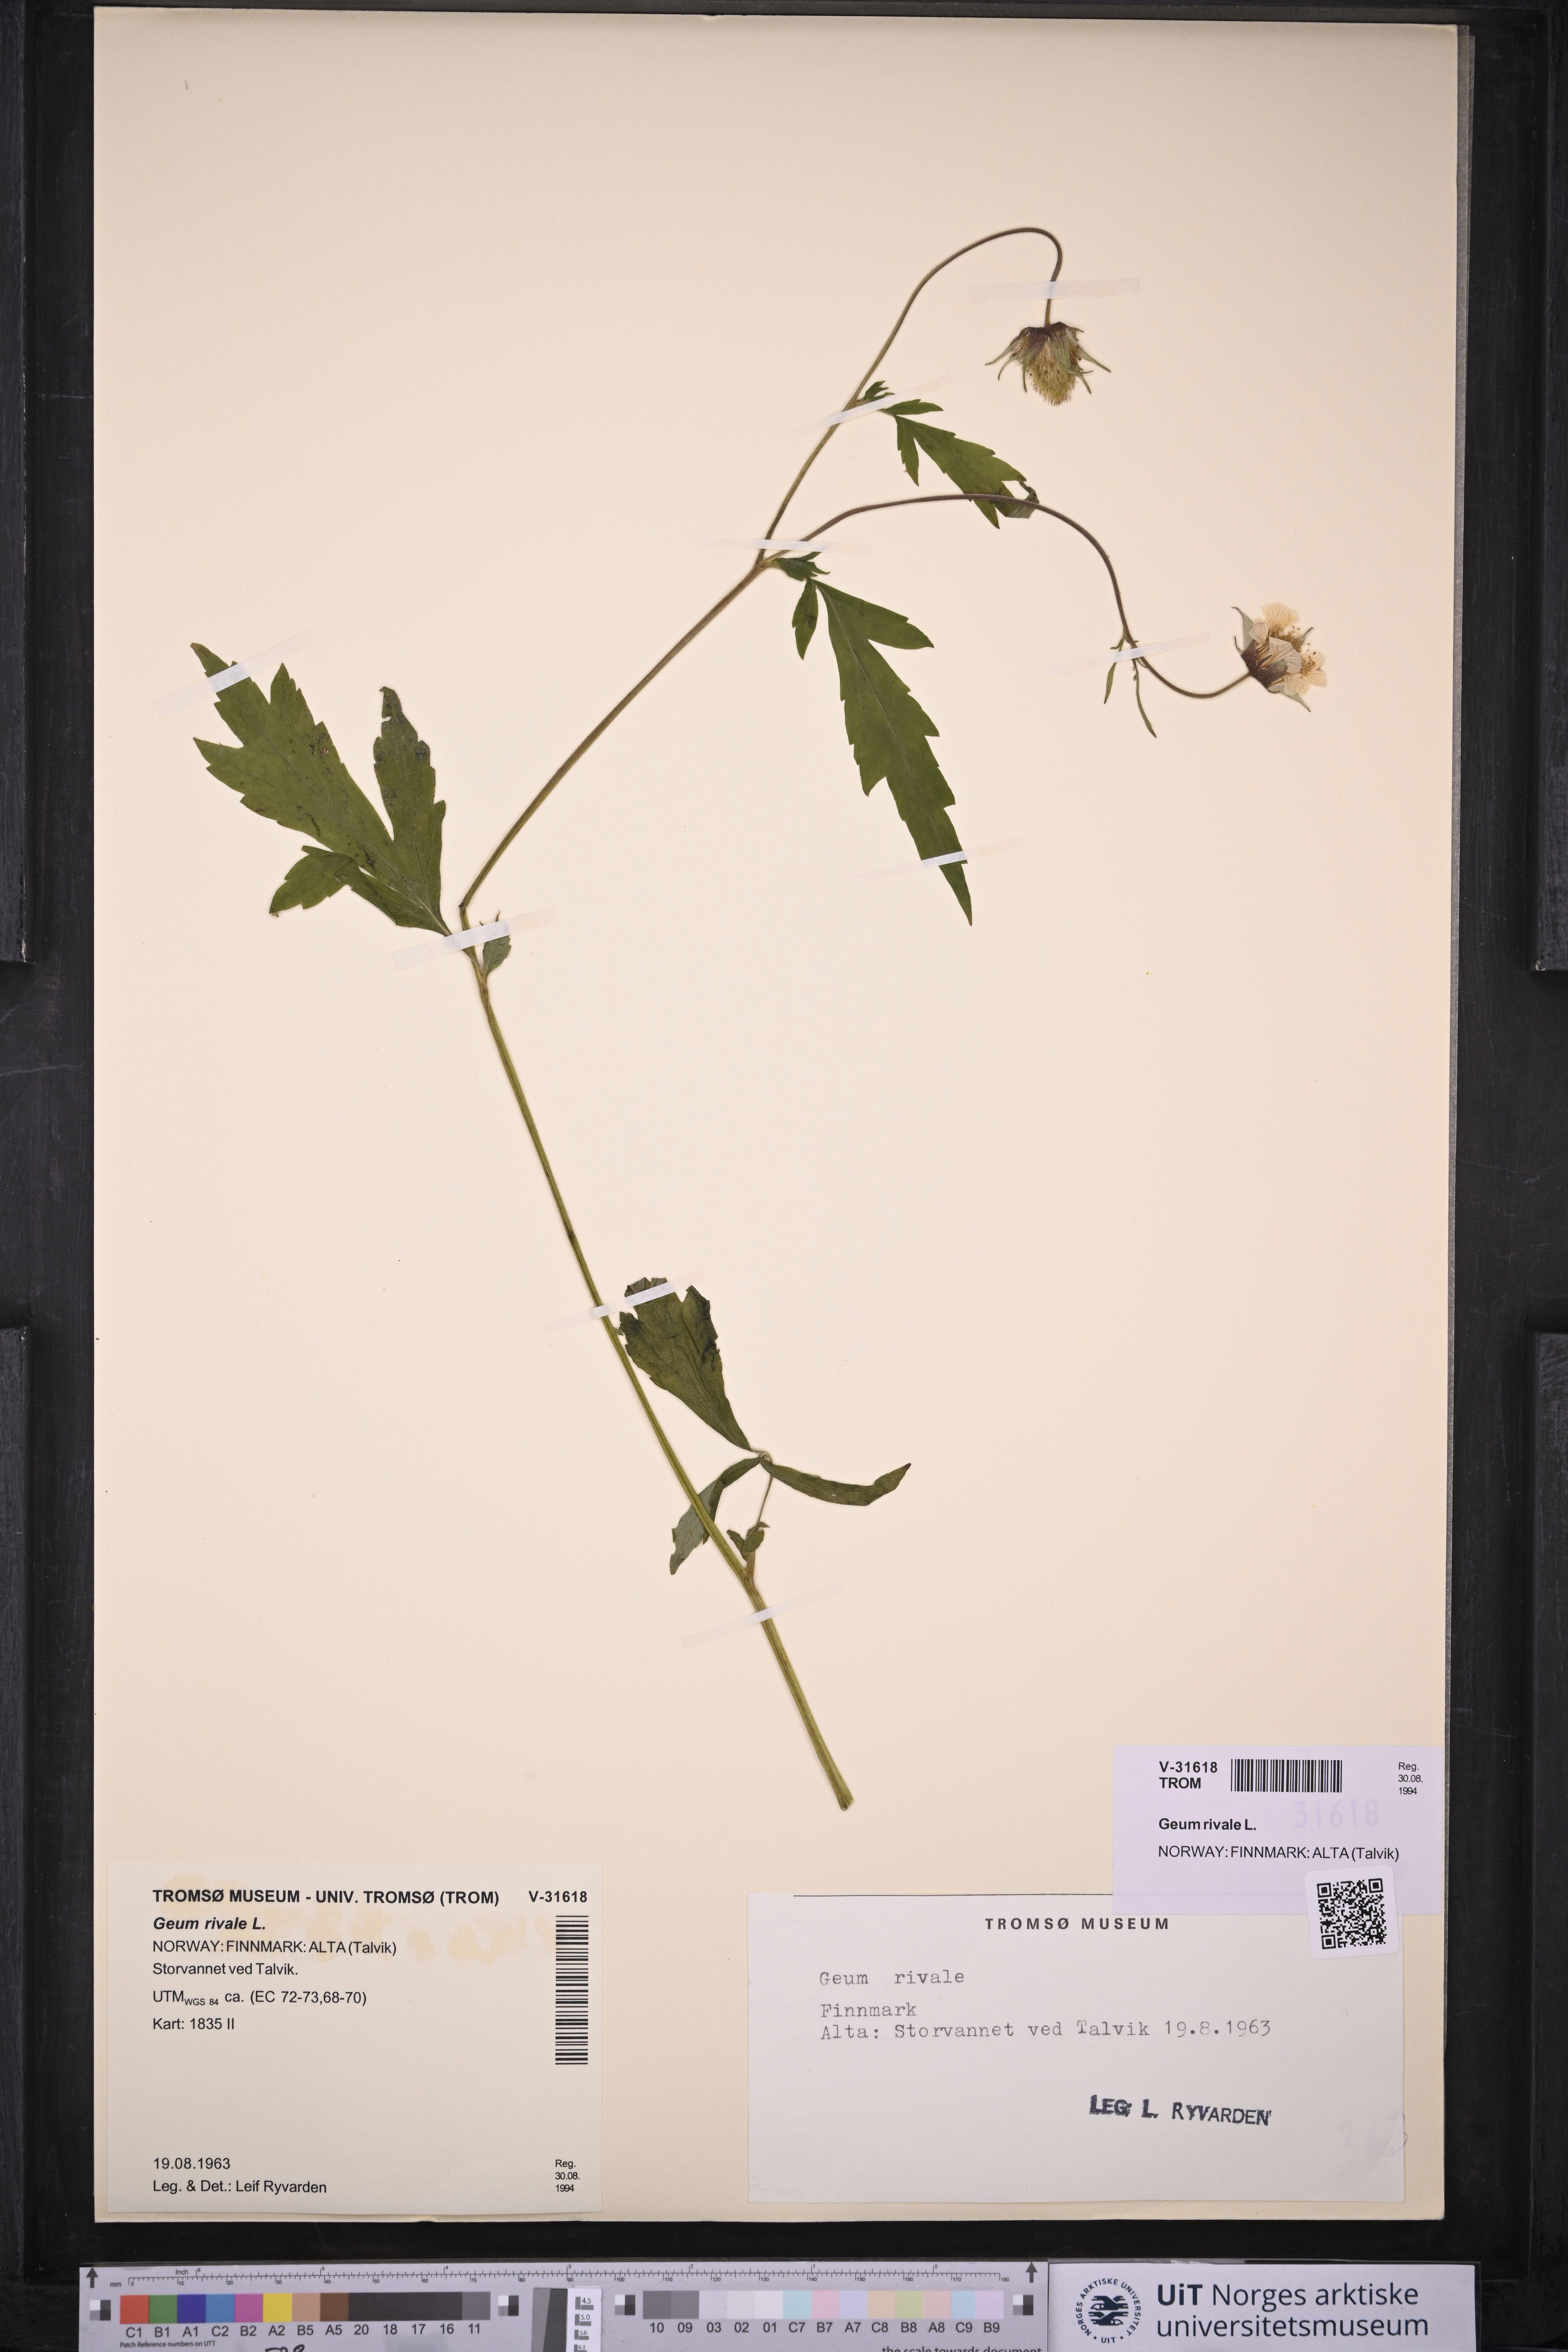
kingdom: Plantae
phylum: Tracheophyta
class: Magnoliopsida
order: Rosales
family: Rosaceae
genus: Geum
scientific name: Geum rivale
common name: Water avens
